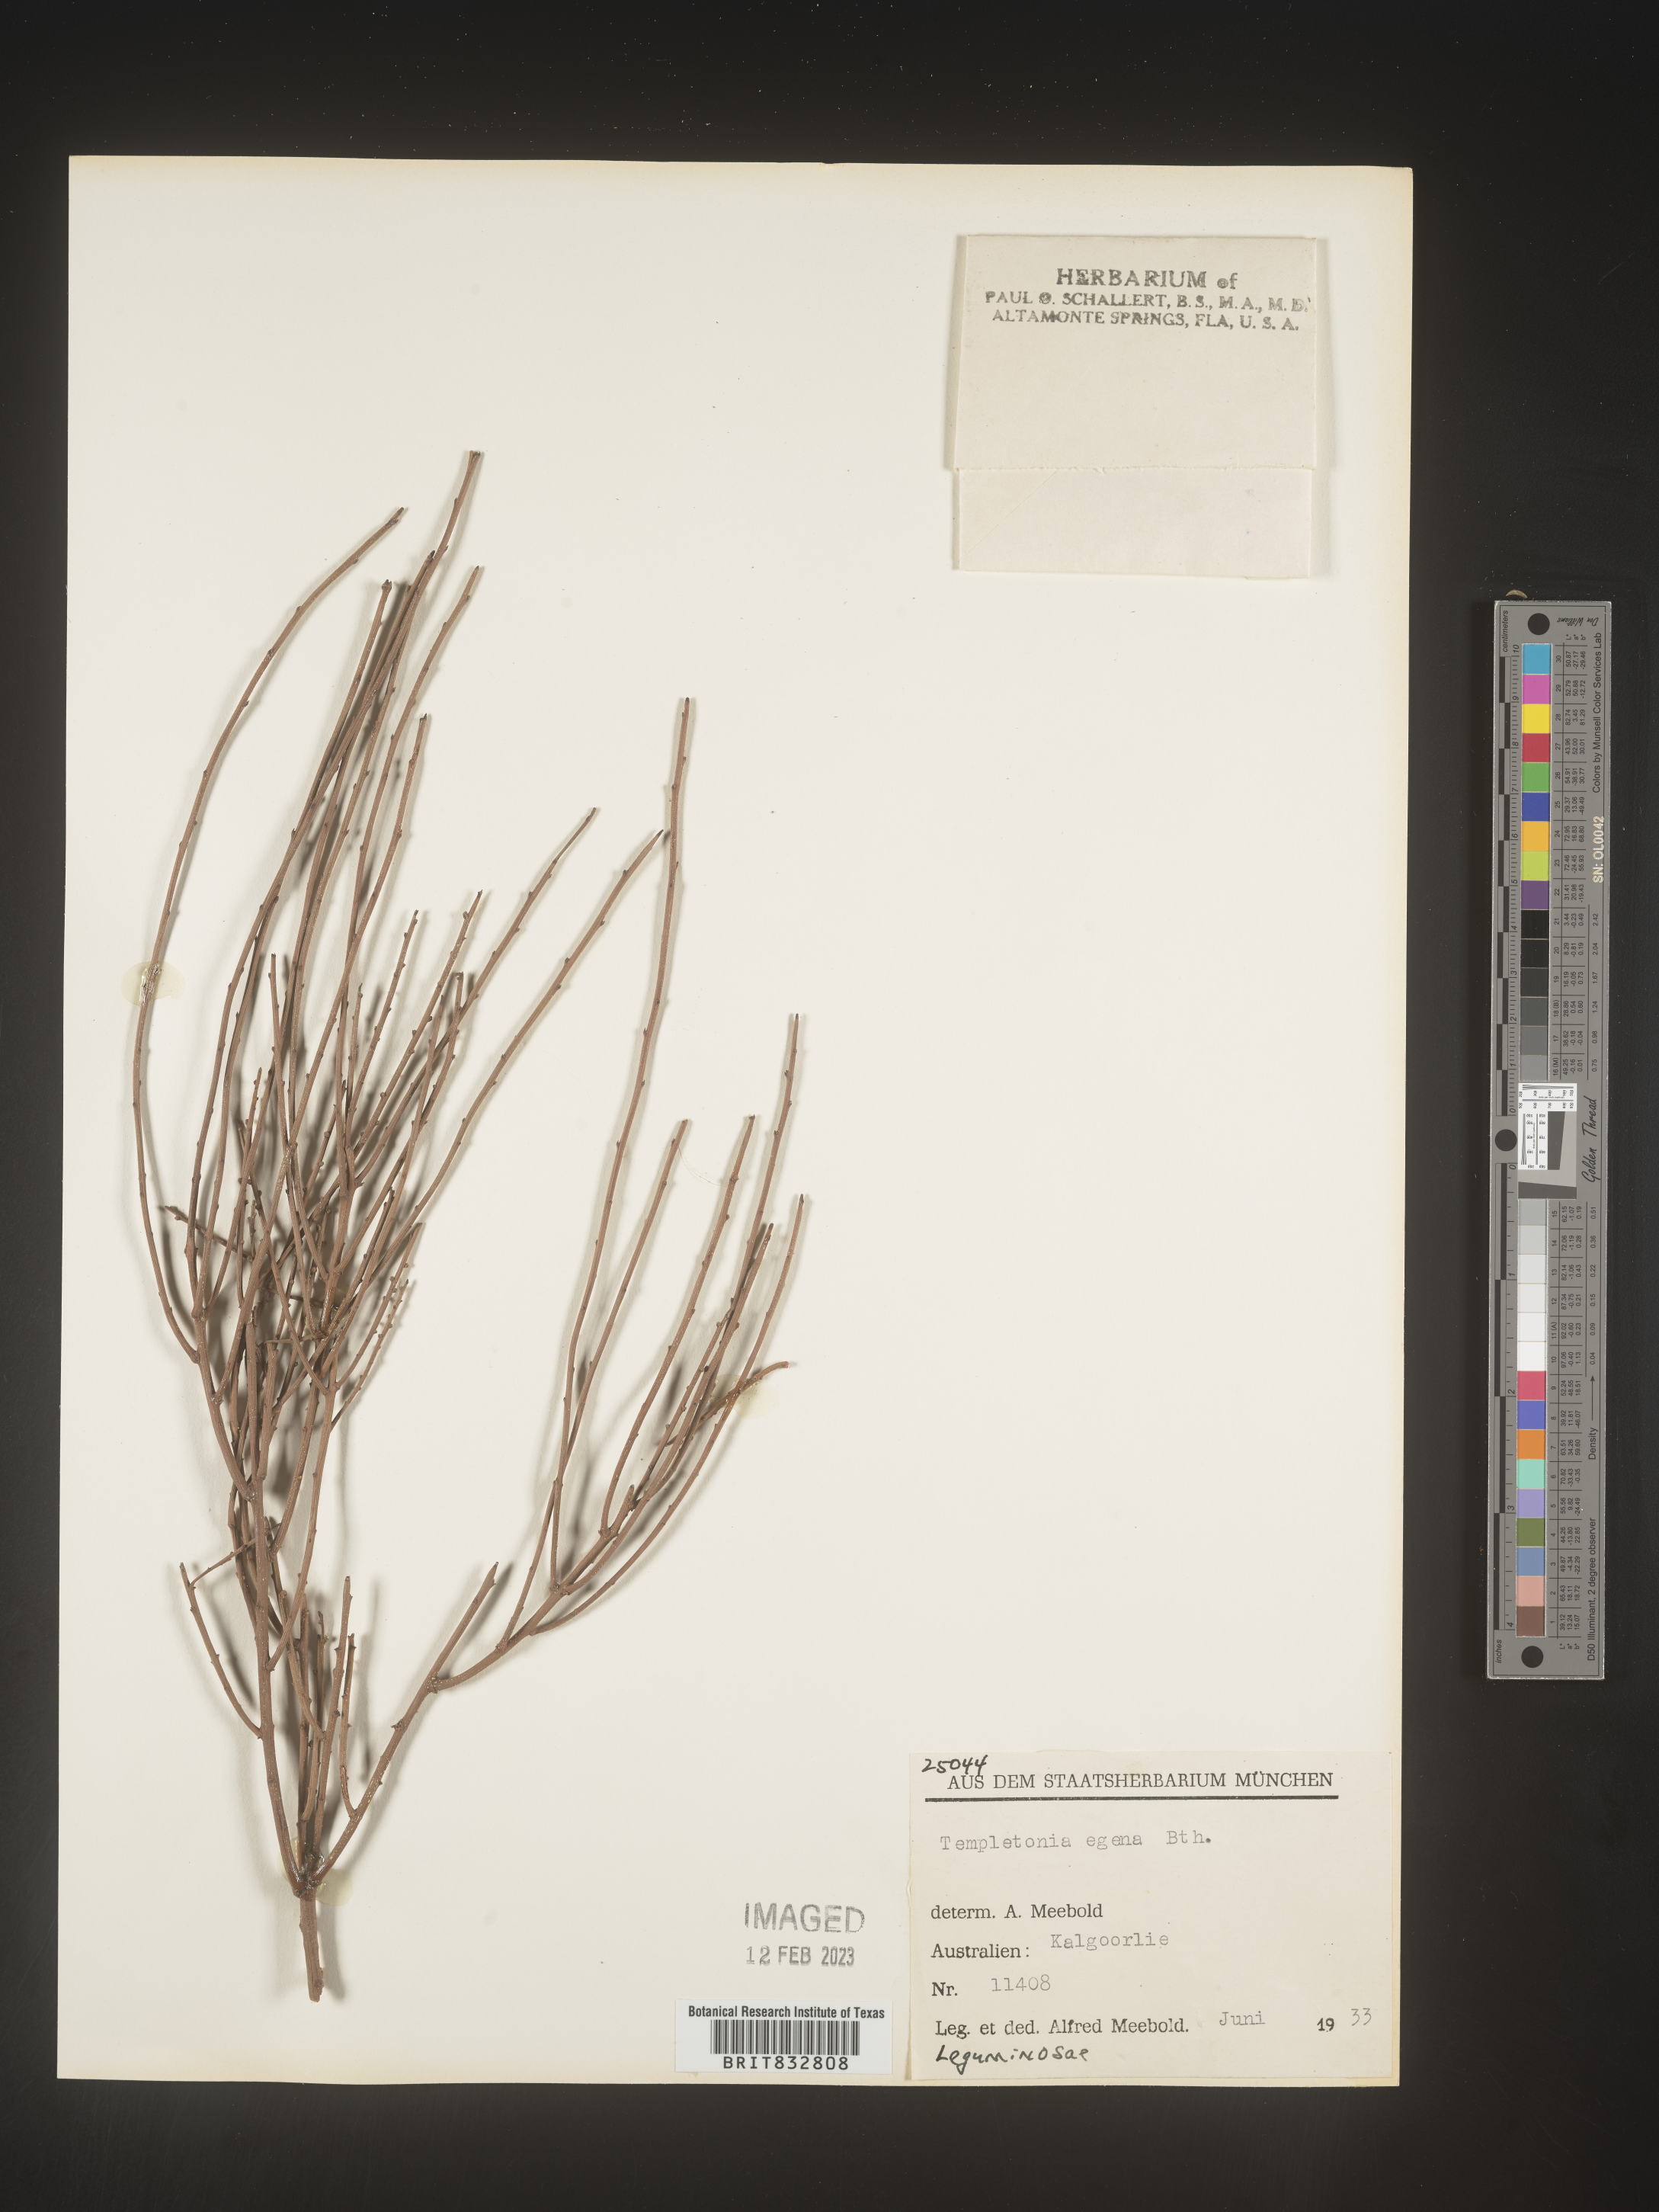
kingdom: Plantae
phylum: Tracheophyta
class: Magnoliopsida
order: Fabales
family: Fabaceae
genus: Templetonia
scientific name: Templetonia
